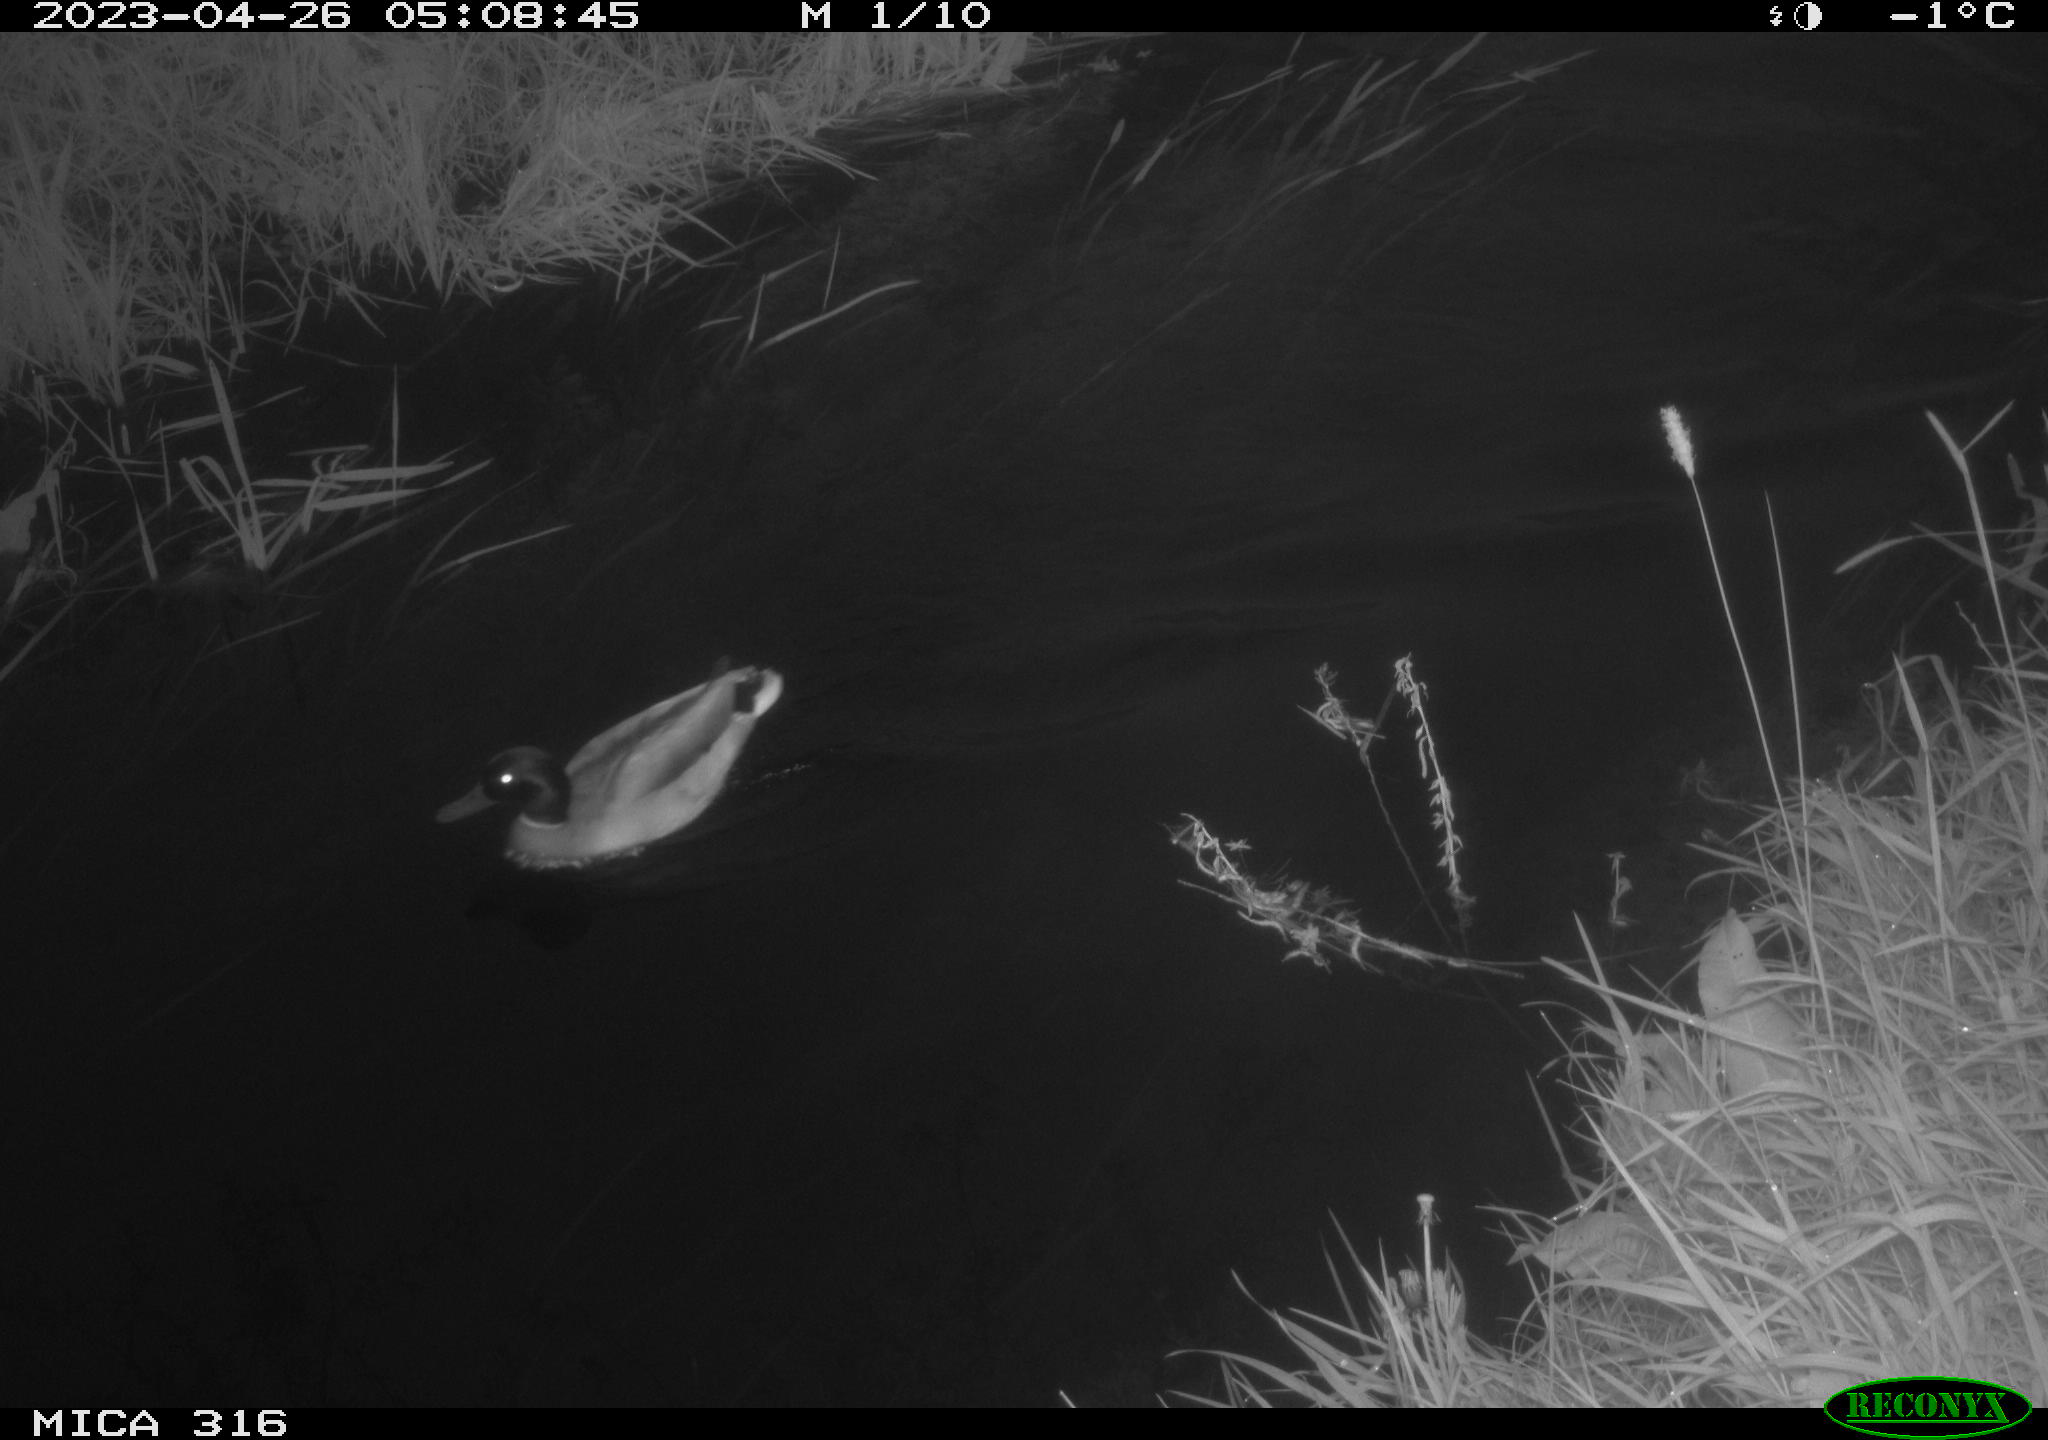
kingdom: Animalia
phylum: Chordata
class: Aves
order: Anseriformes
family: Anatidae
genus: Anas
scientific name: Anas
